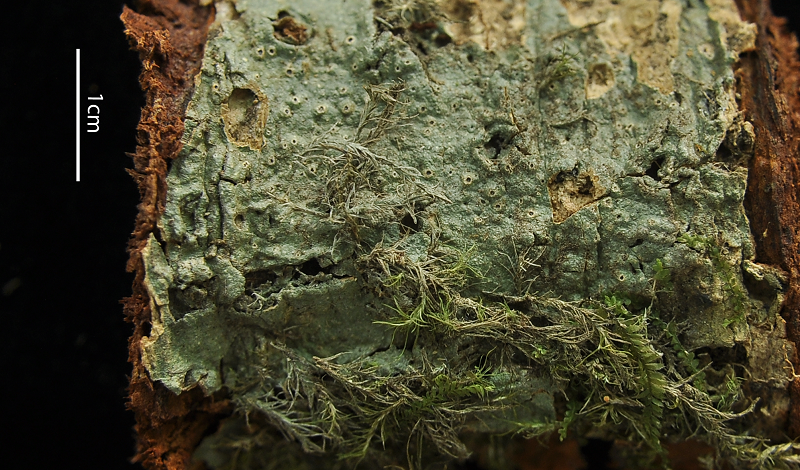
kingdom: Fungi
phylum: Ascomycota
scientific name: Ascomycota
